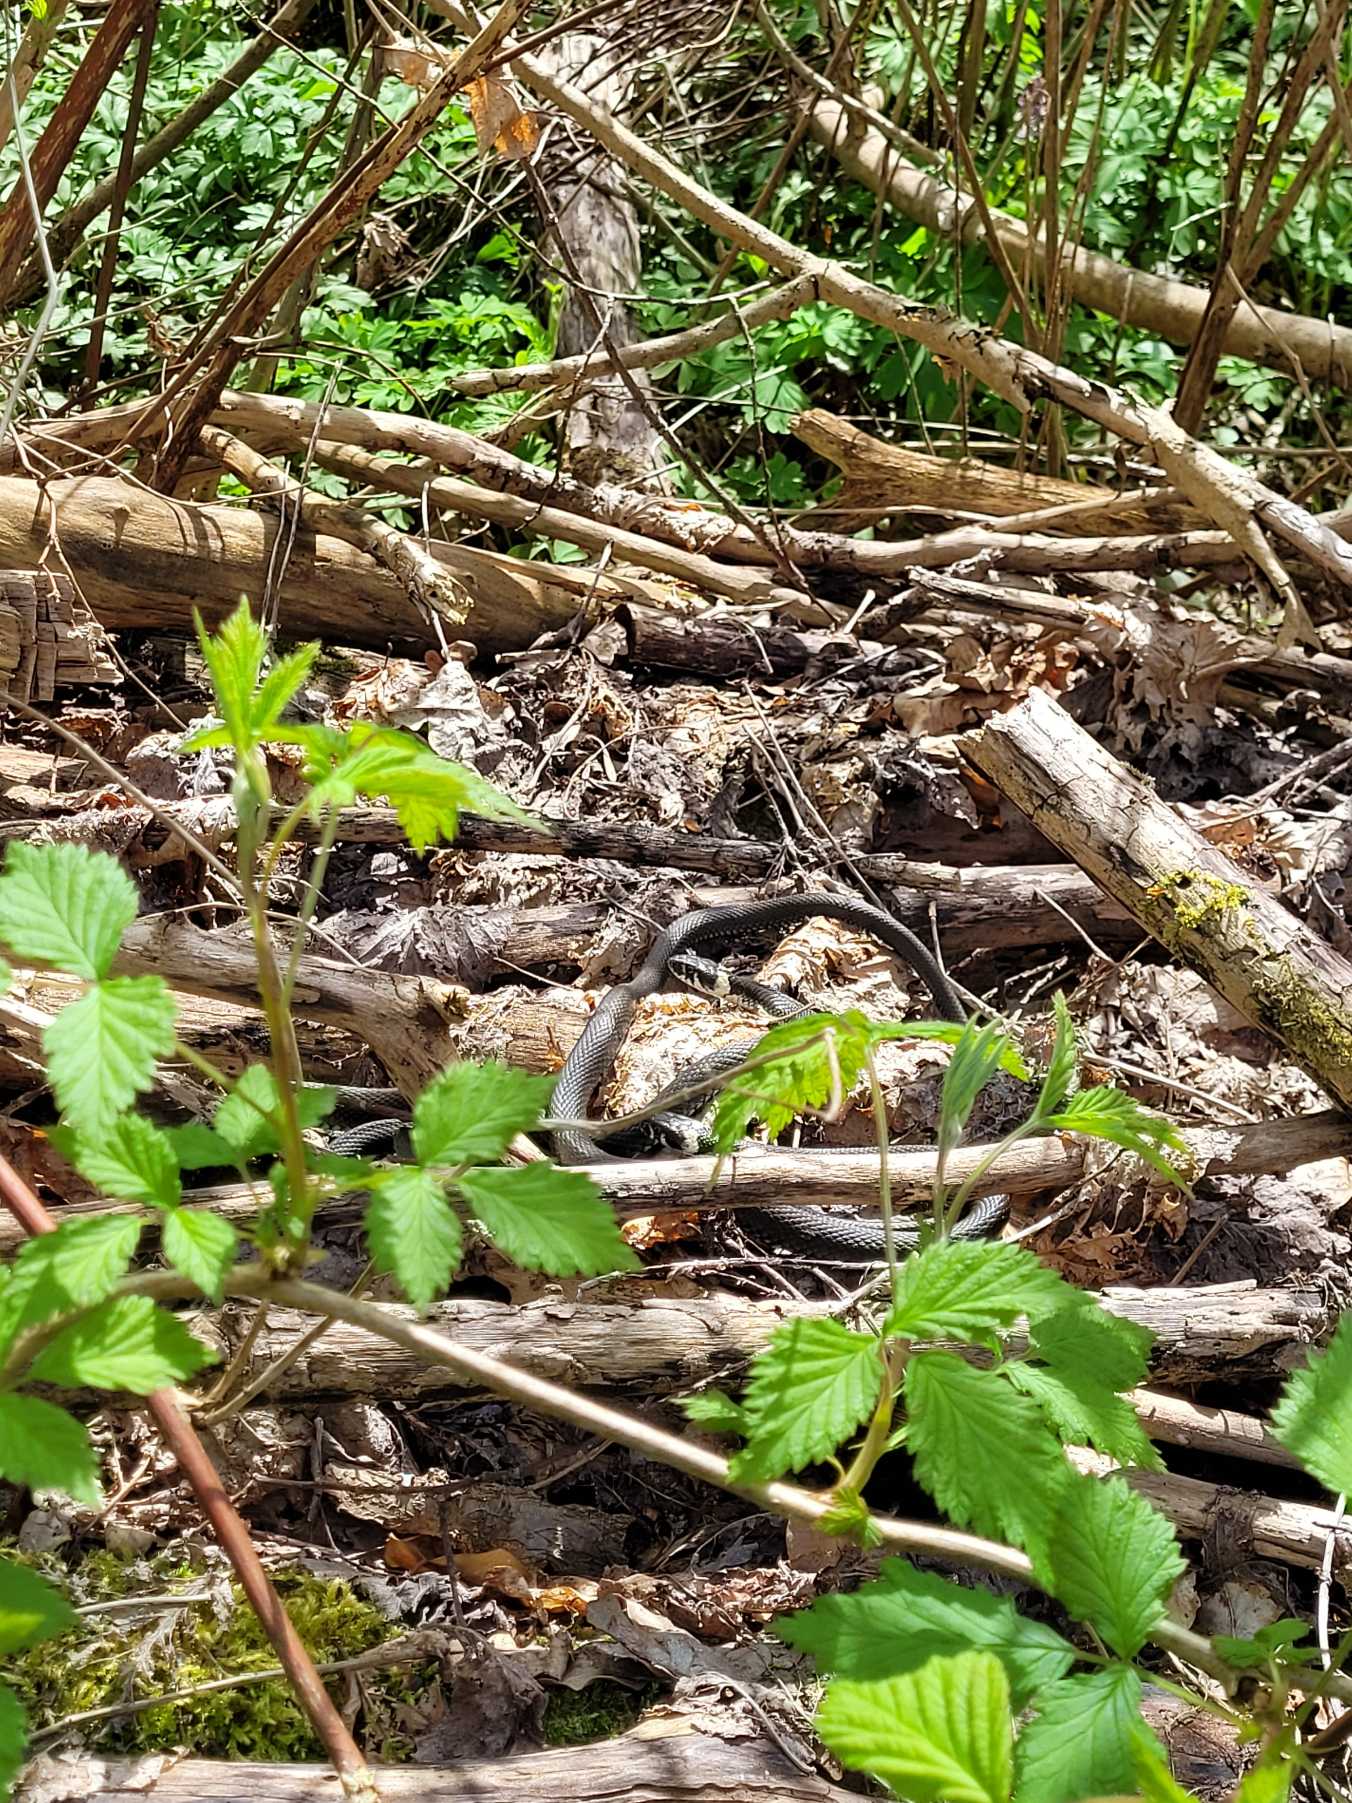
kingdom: Animalia
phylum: Chordata
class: Squamata
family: Colubridae
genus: Natrix
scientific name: Natrix natrix
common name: Snog
